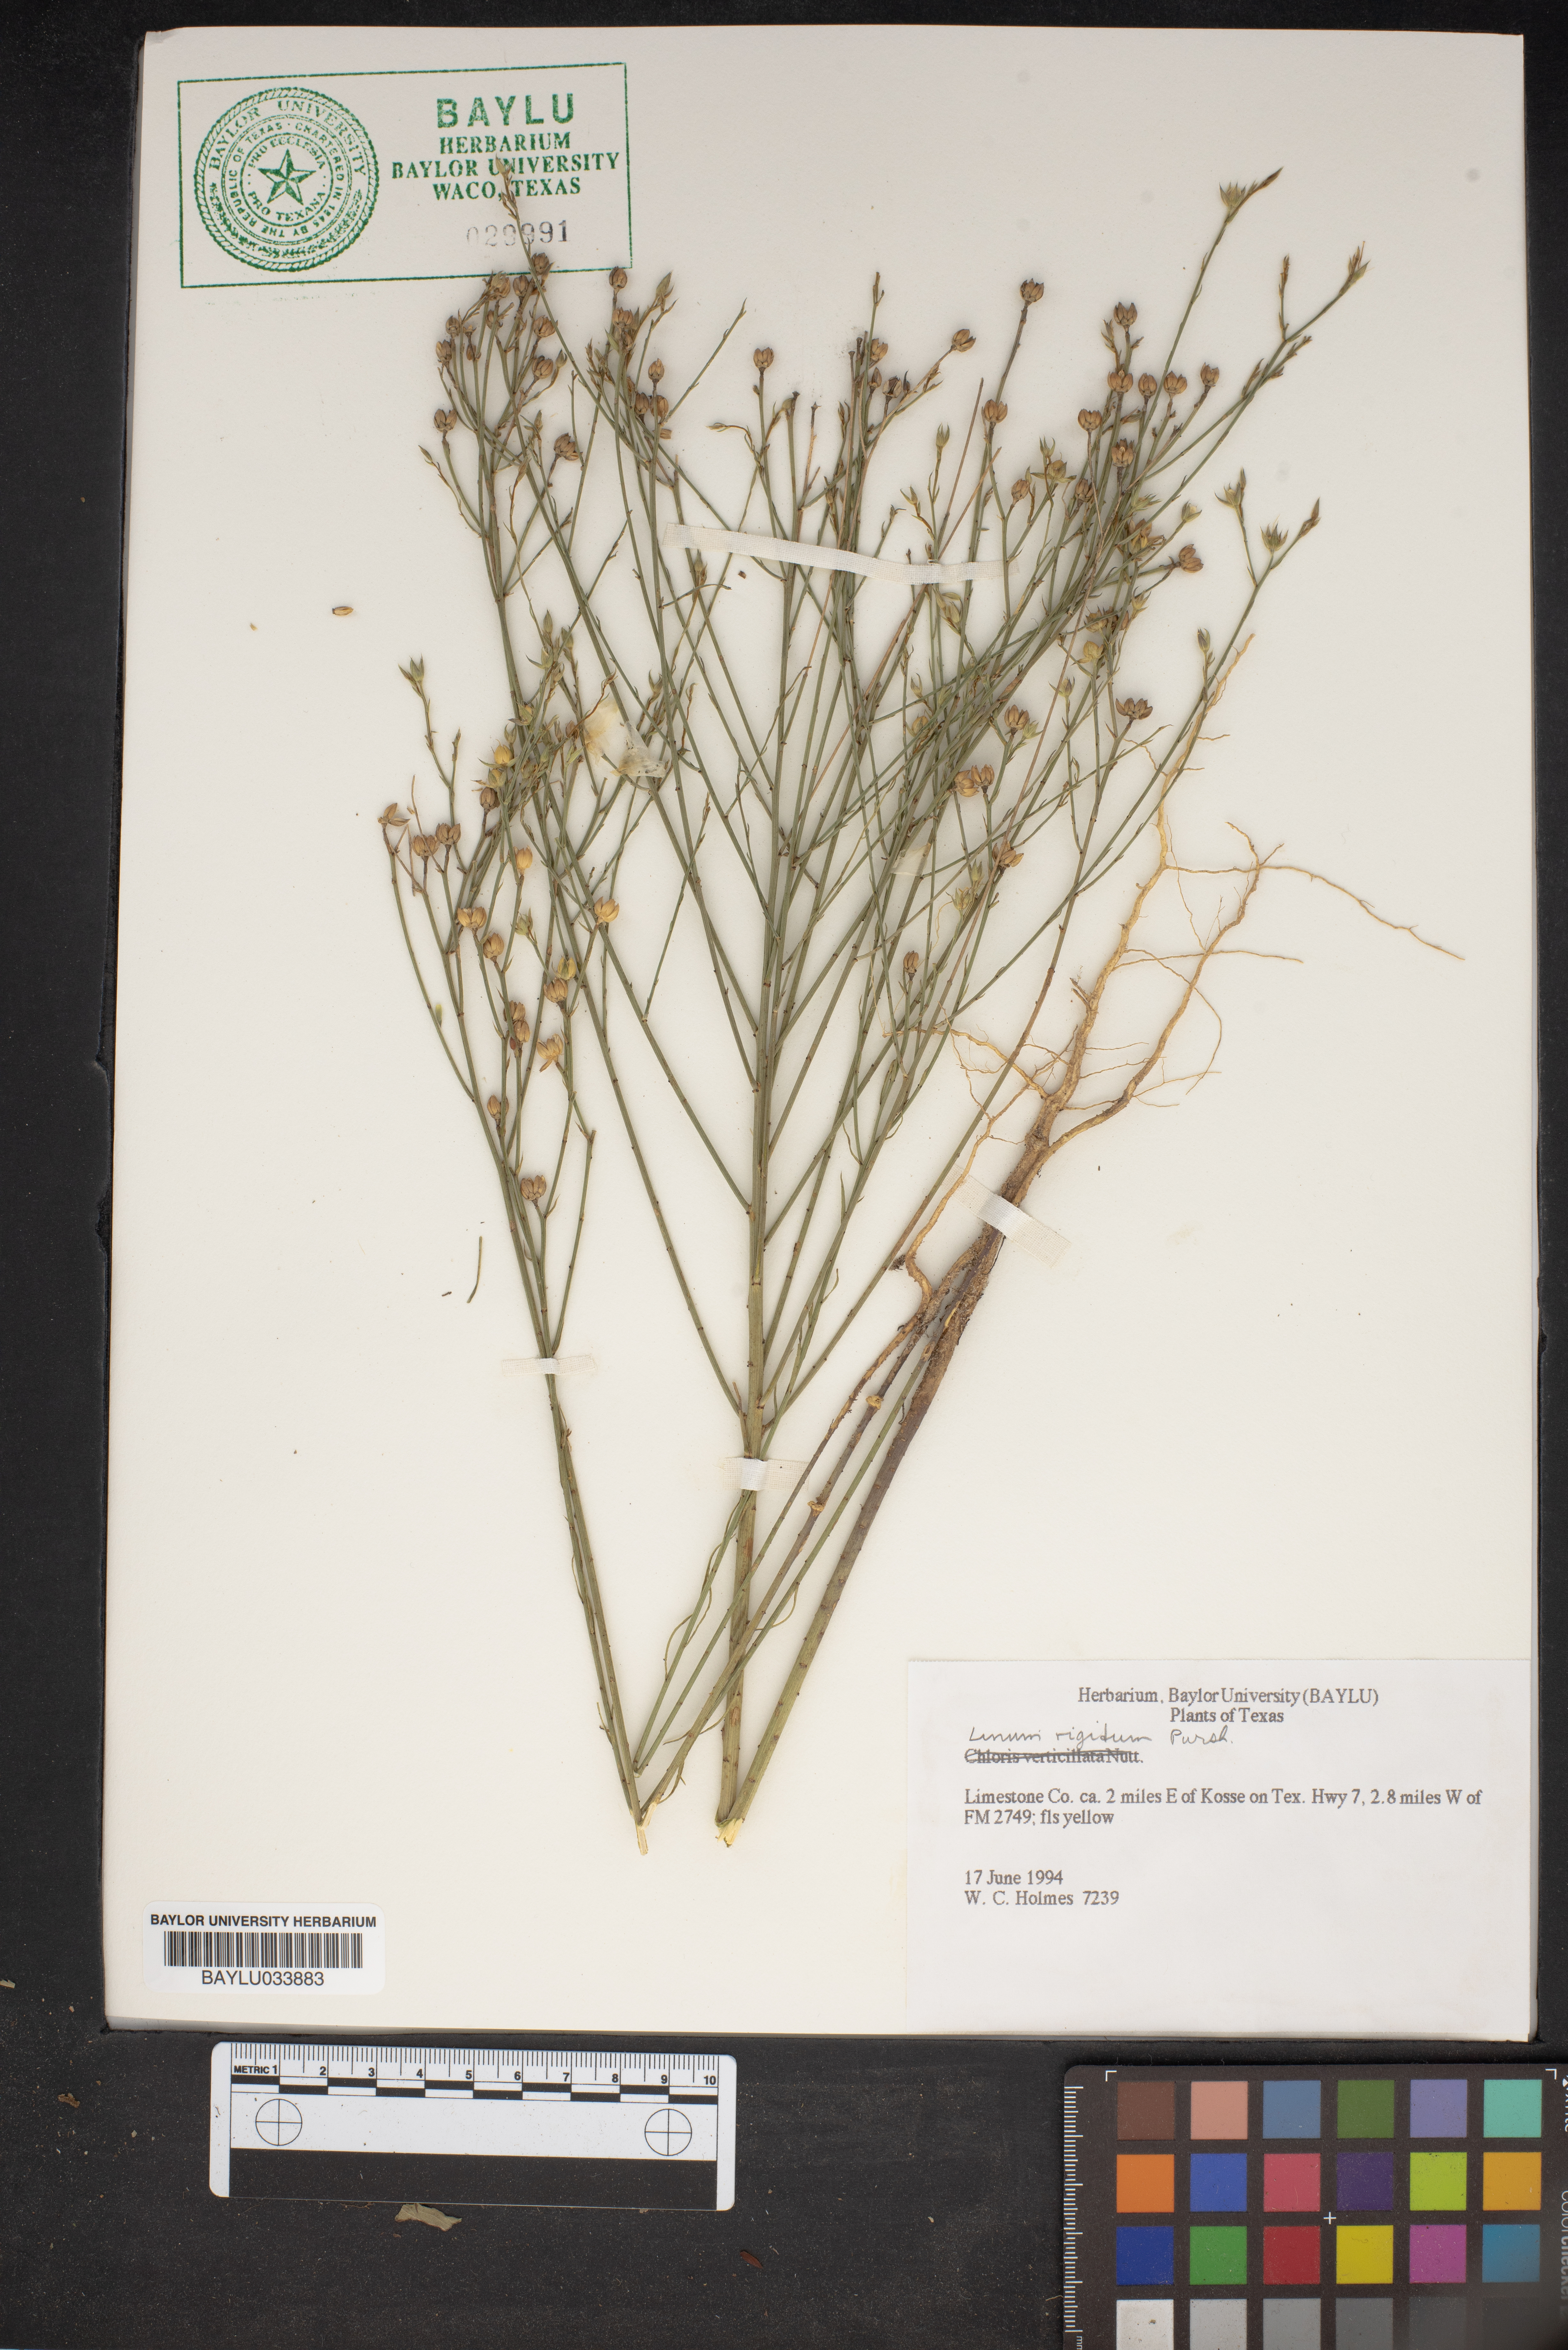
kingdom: Plantae
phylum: Tracheophyta
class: Magnoliopsida
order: Malpighiales
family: Linaceae
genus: Linum
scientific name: Linum rigidum
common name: Stiff-stem flax
